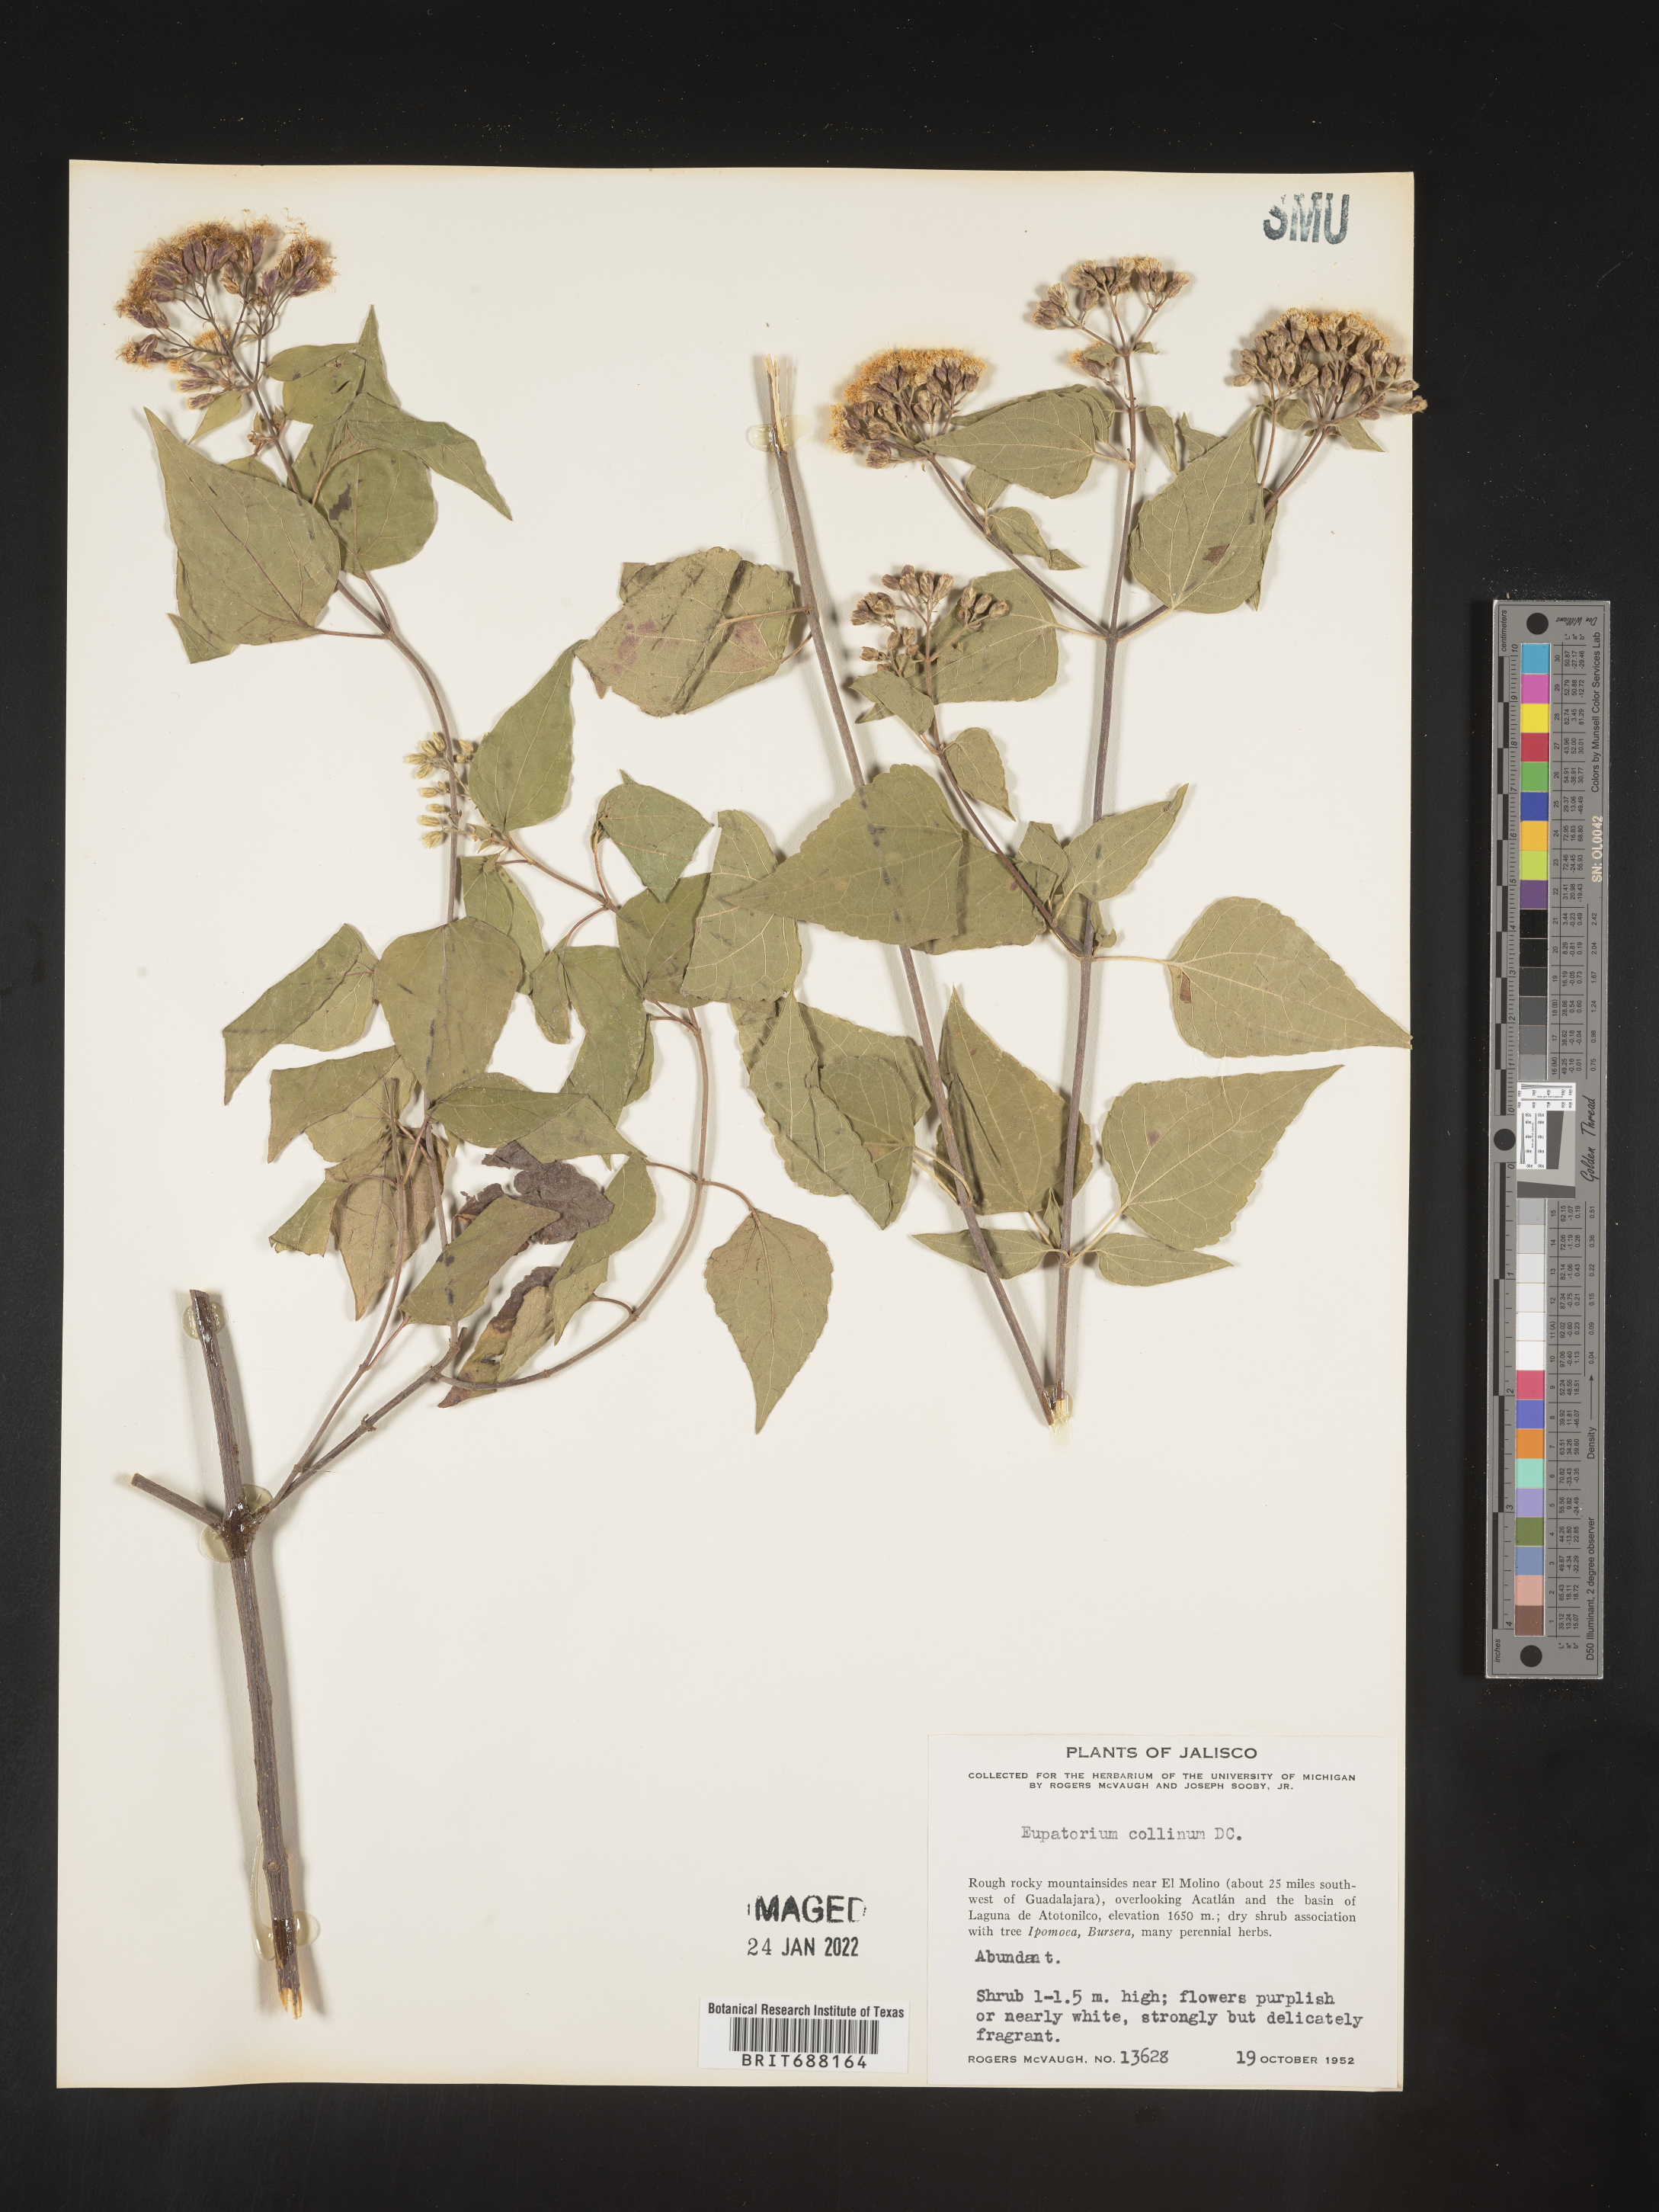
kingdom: Plantae
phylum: Tracheophyta
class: Magnoliopsida
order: Asterales
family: Asteraceae
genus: Chromolaena
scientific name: Chromolaena collina
